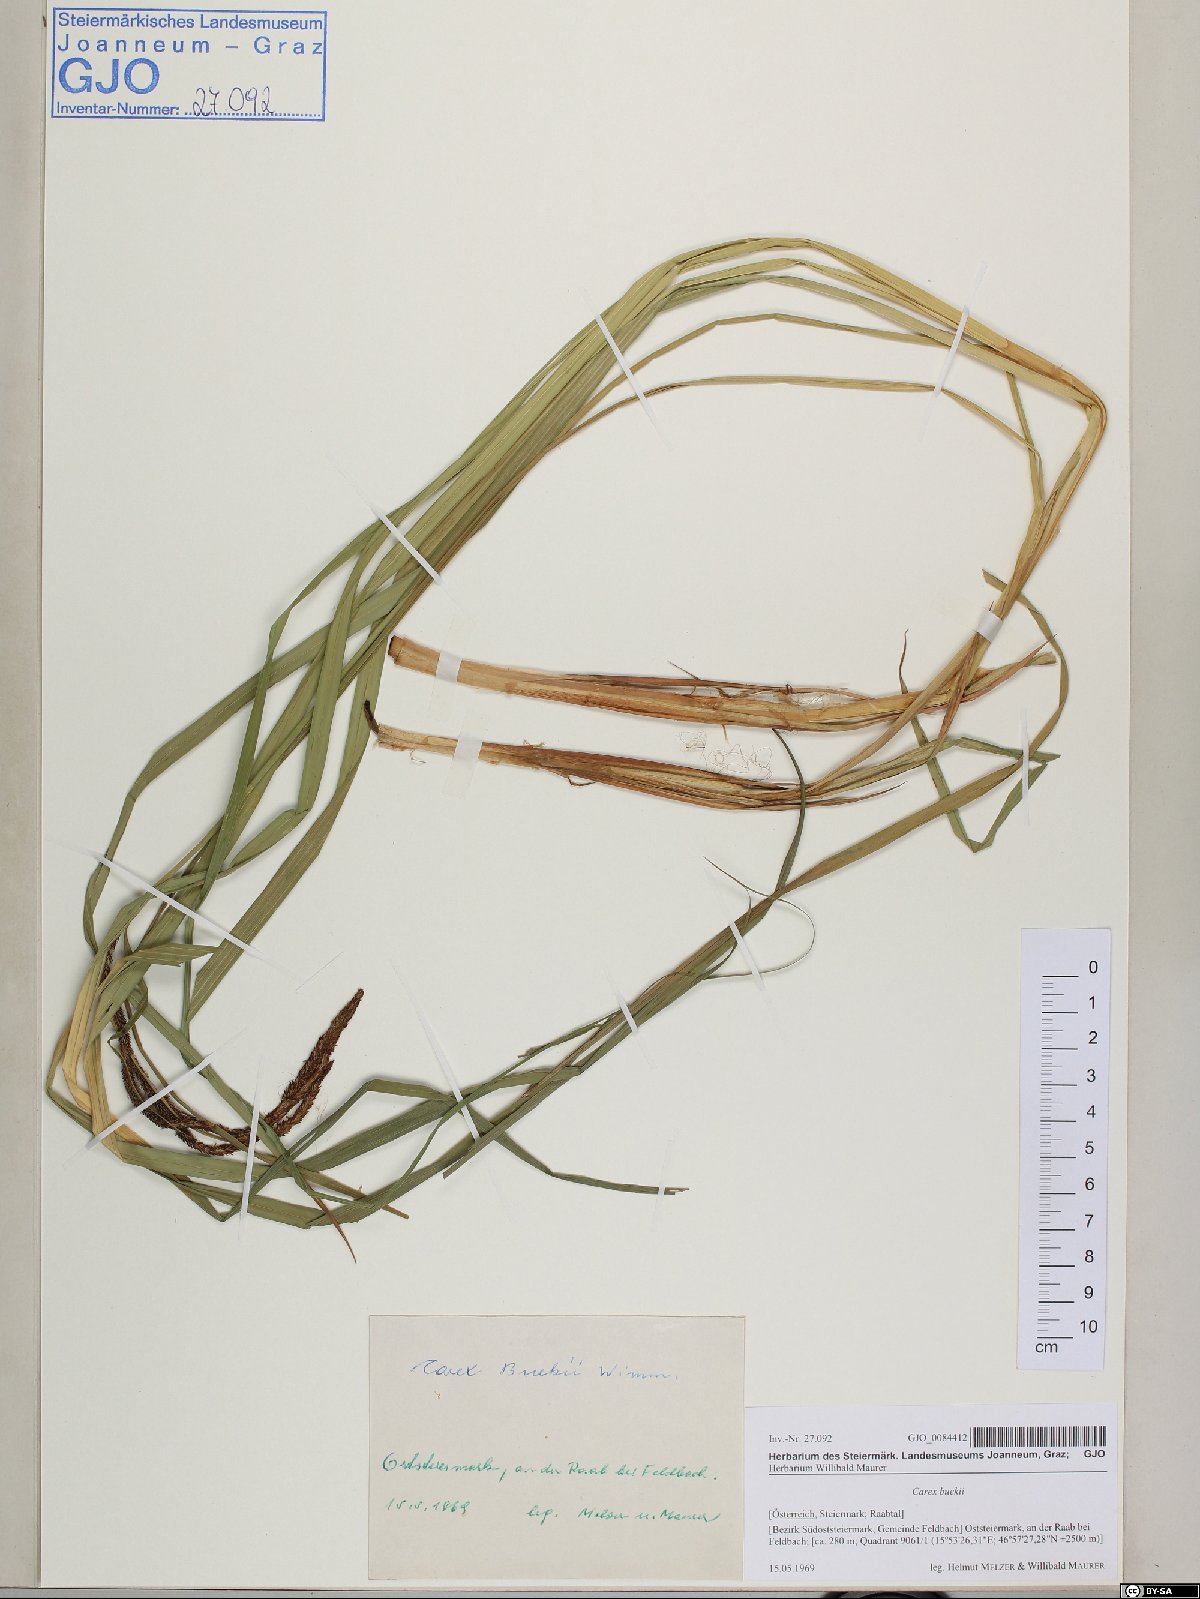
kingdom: Plantae
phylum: Tracheophyta
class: Liliopsida
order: Poales
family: Cyperaceae
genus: Carex
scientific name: Carex buekii
